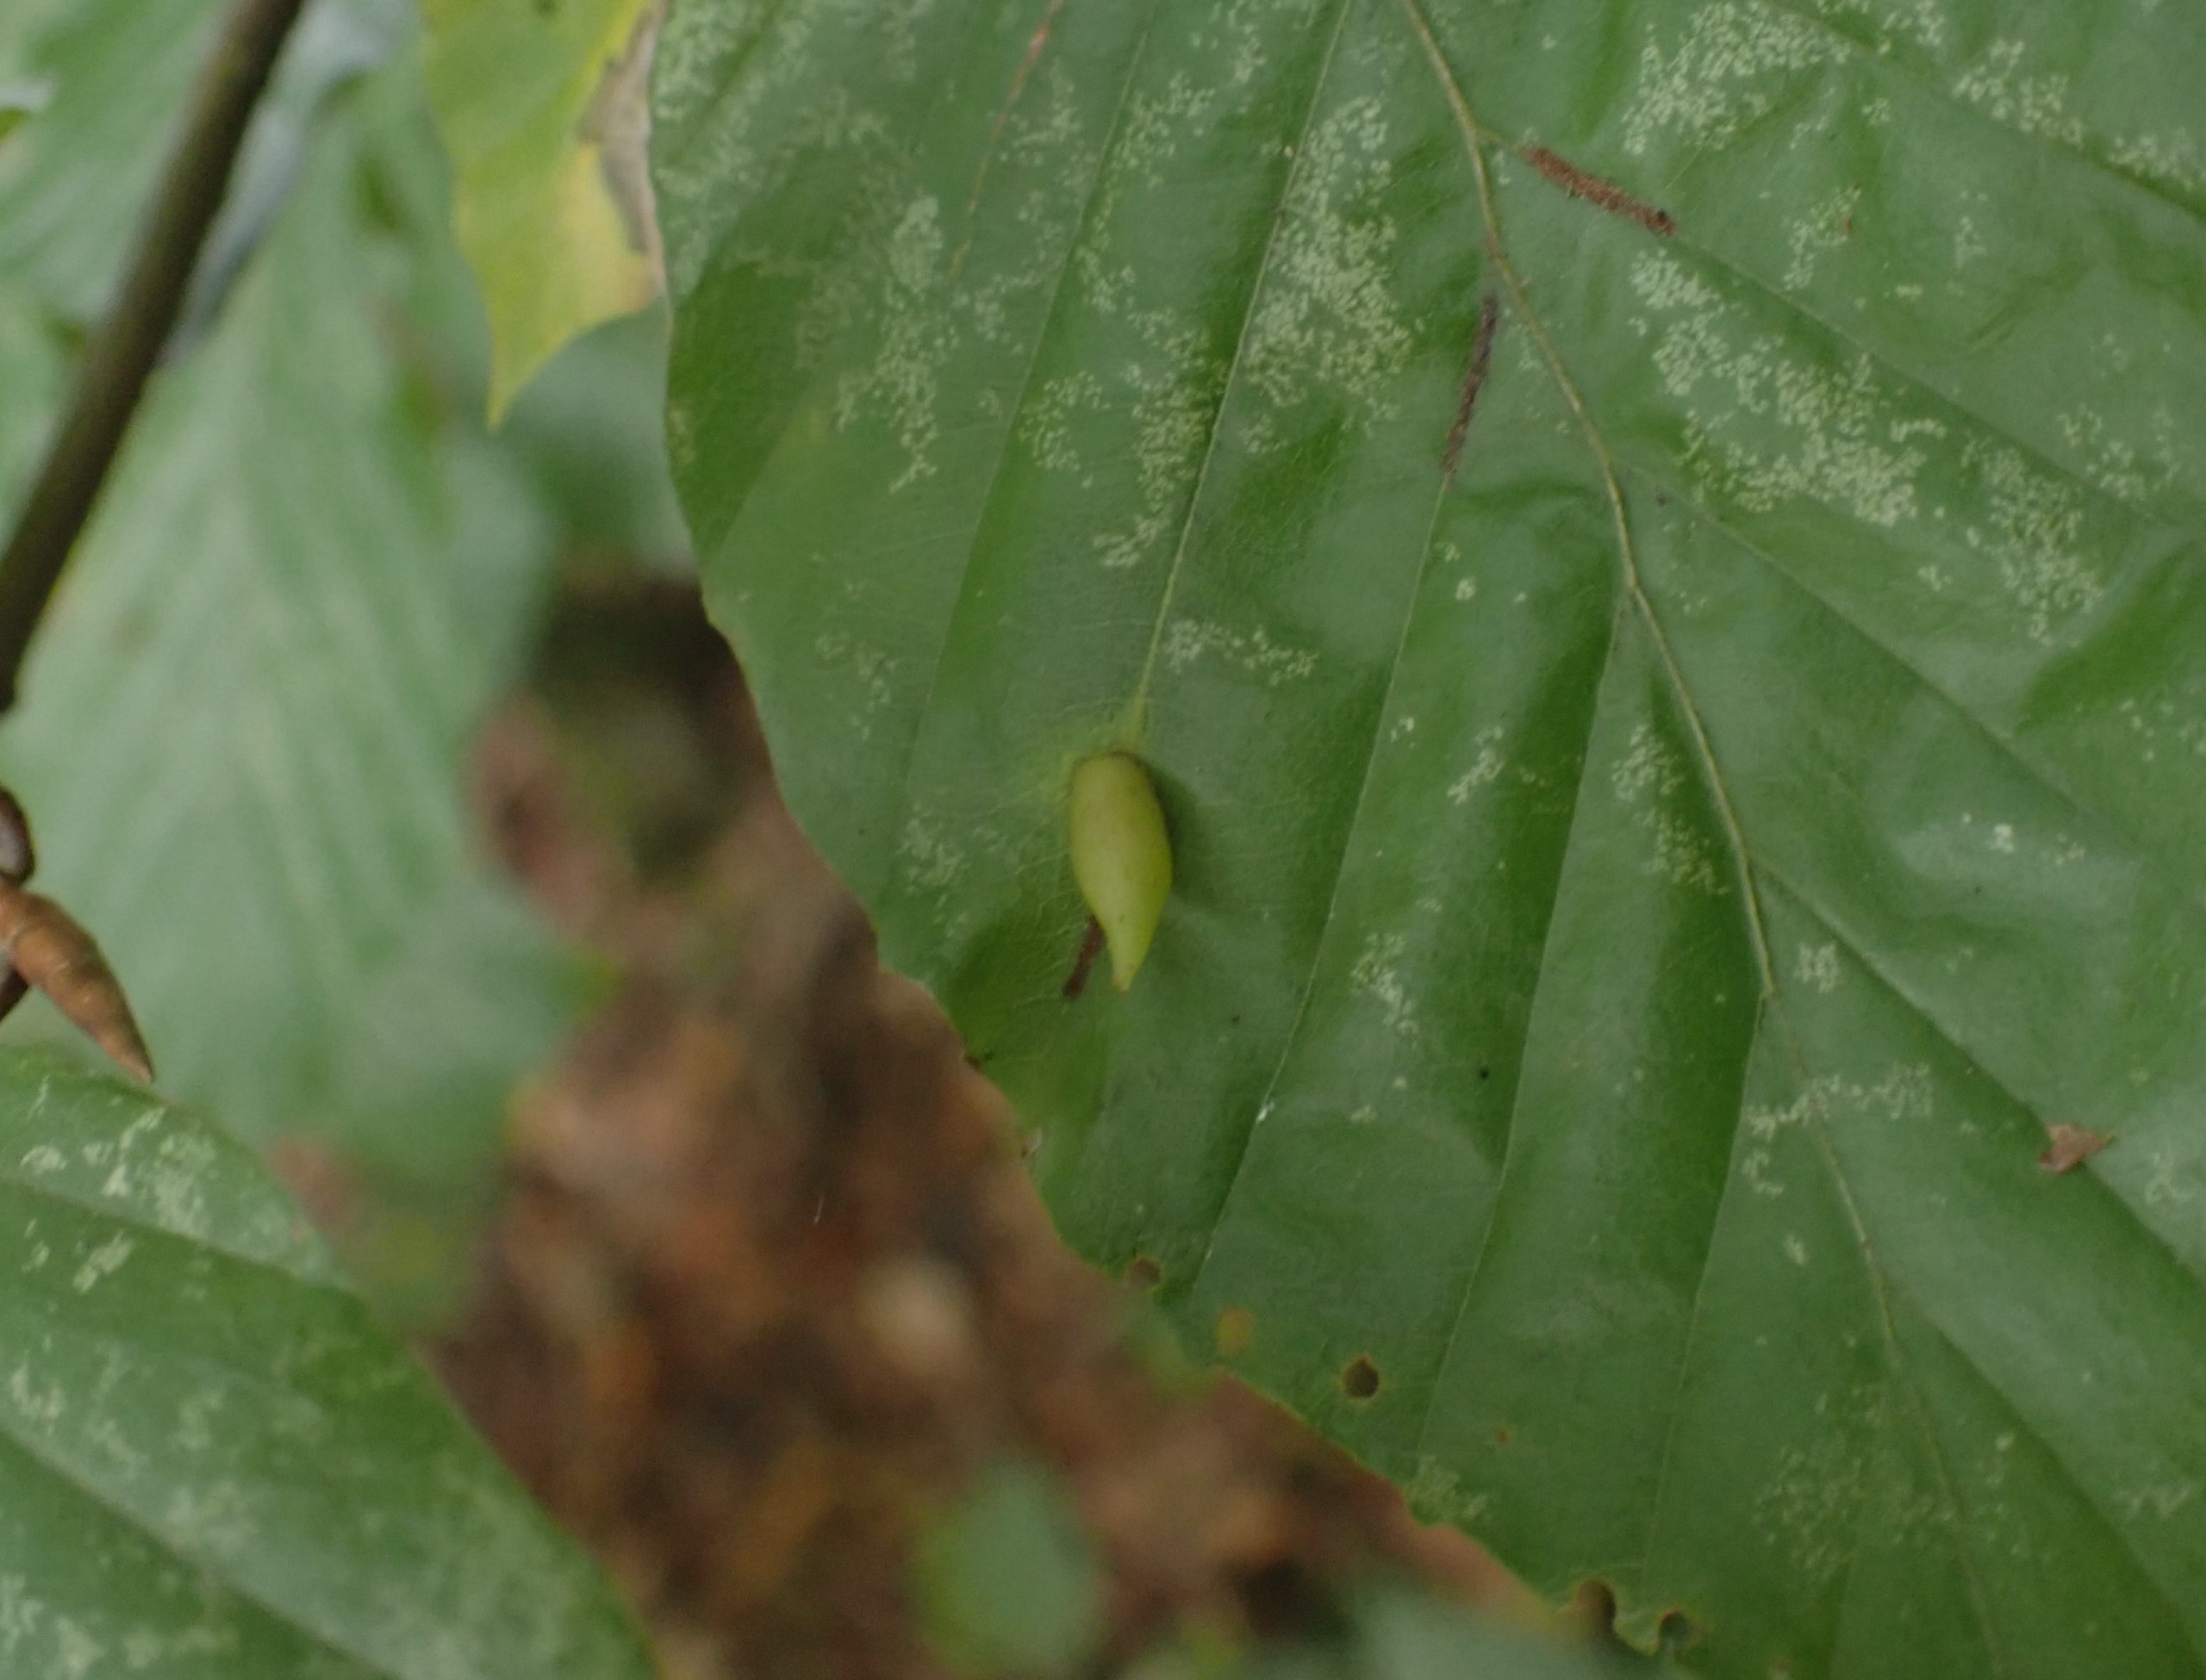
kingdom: Animalia
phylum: Arthropoda
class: Insecta
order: Diptera
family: Cecidomyiidae
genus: Mikiola
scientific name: Mikiola fagi
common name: Bøgegalmyg
